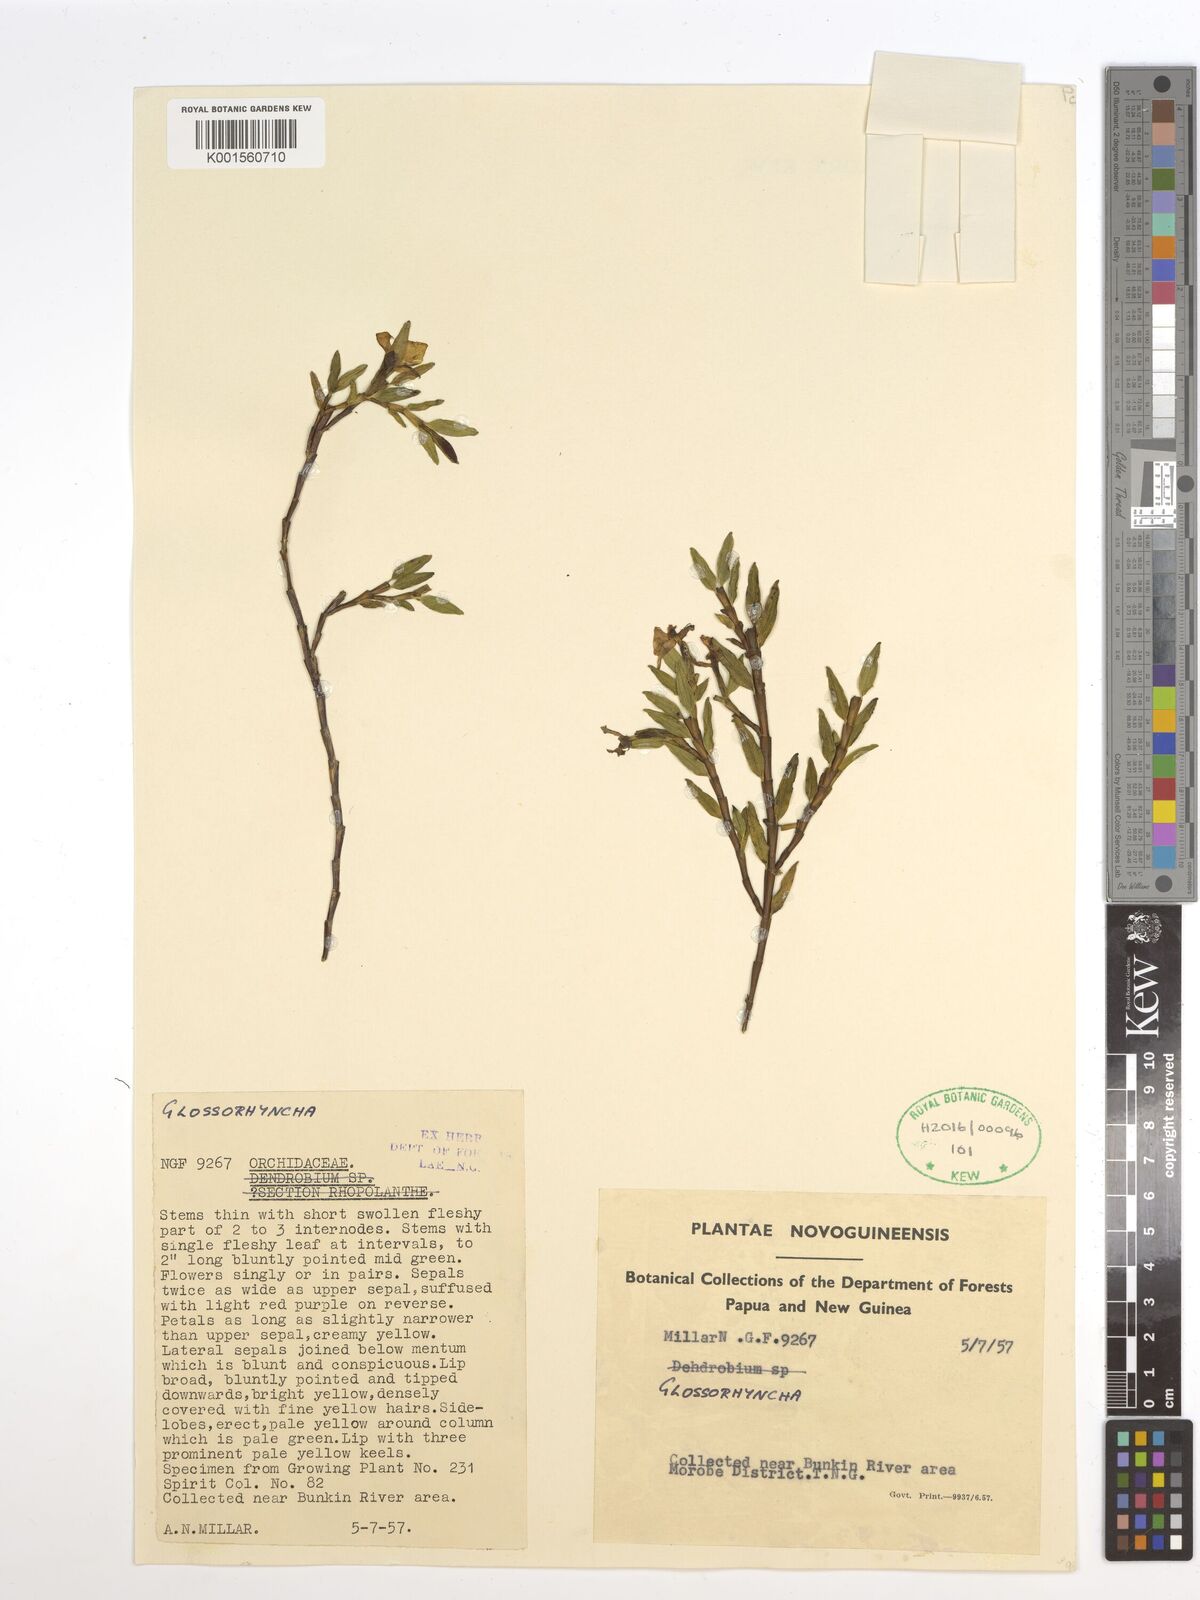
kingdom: Plantae
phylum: Tracheophyta
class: Liliopsida
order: Asparagales
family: Orchidaceae
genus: Glomera
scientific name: Glomera
